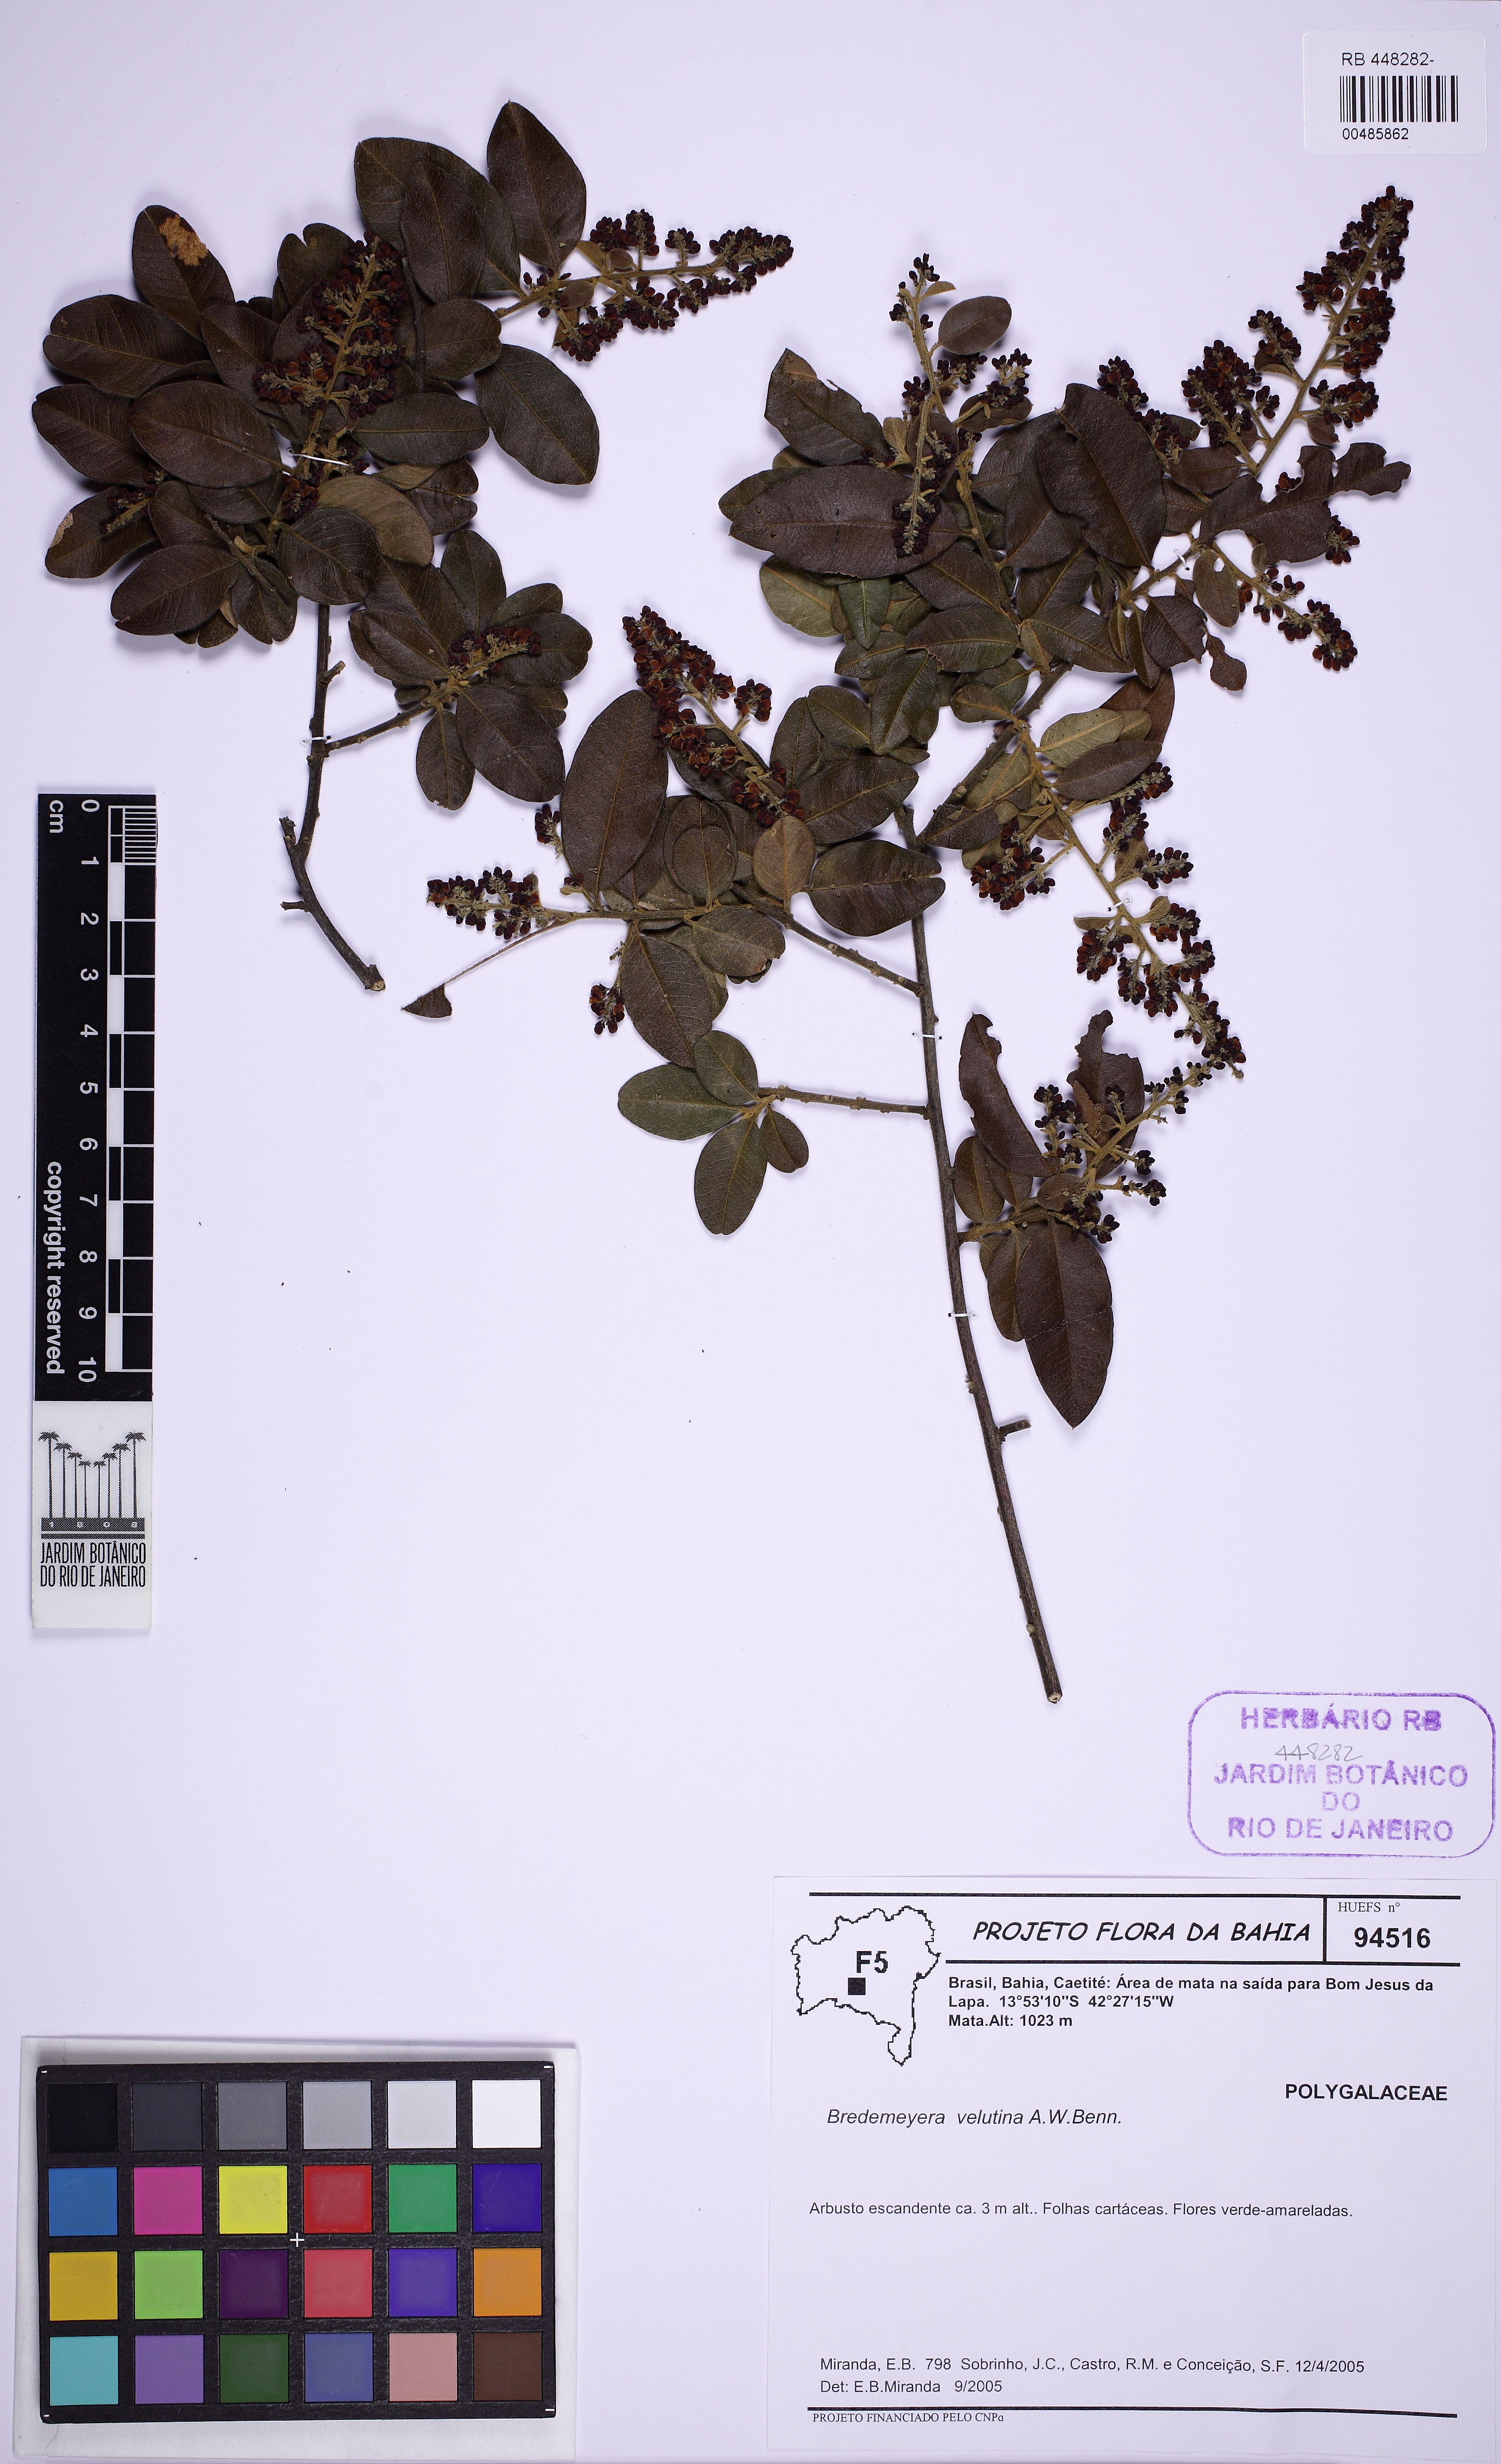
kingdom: Plantae
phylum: Tracheophyta
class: Magnoliopsida
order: Fabales
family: Polygalaceae
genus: Bredemeyera
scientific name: Bredemeyera martiana
